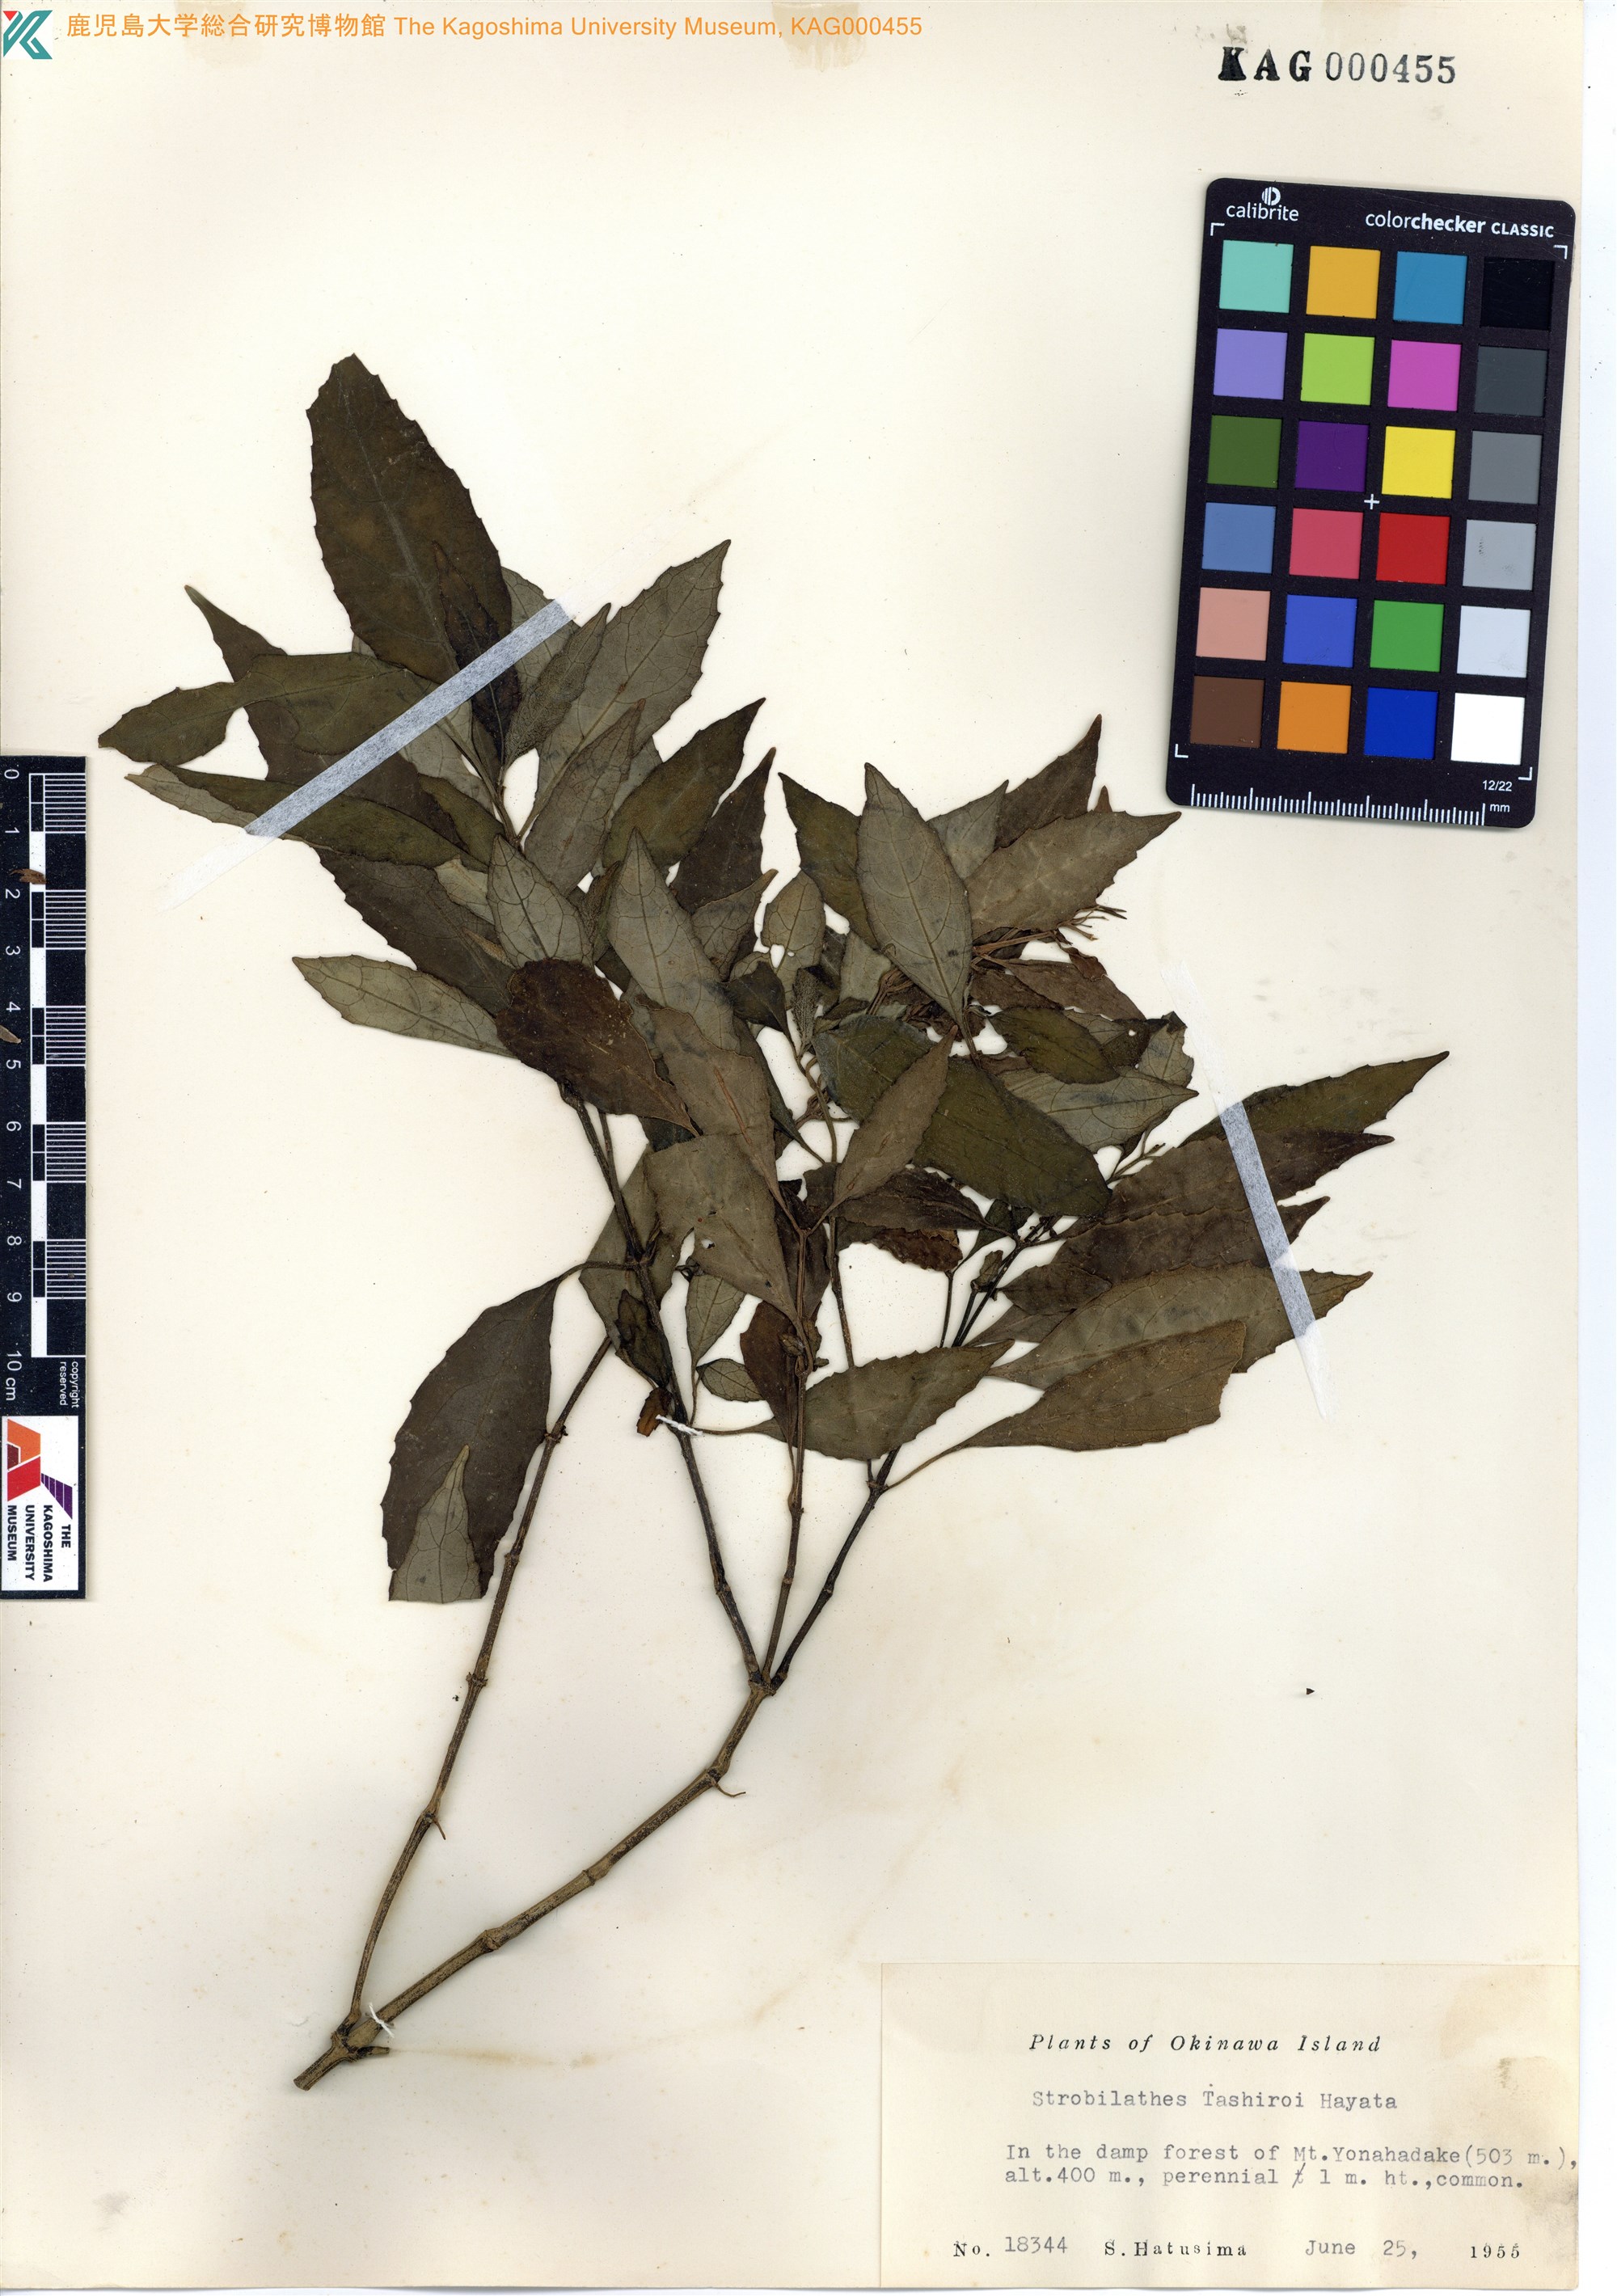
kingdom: Plantae
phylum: Tracheophyta
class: Magnoliopsida
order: Lamiales
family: Acanthaceae
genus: Strobilanthes
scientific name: Strobilanthes flexicaulis
